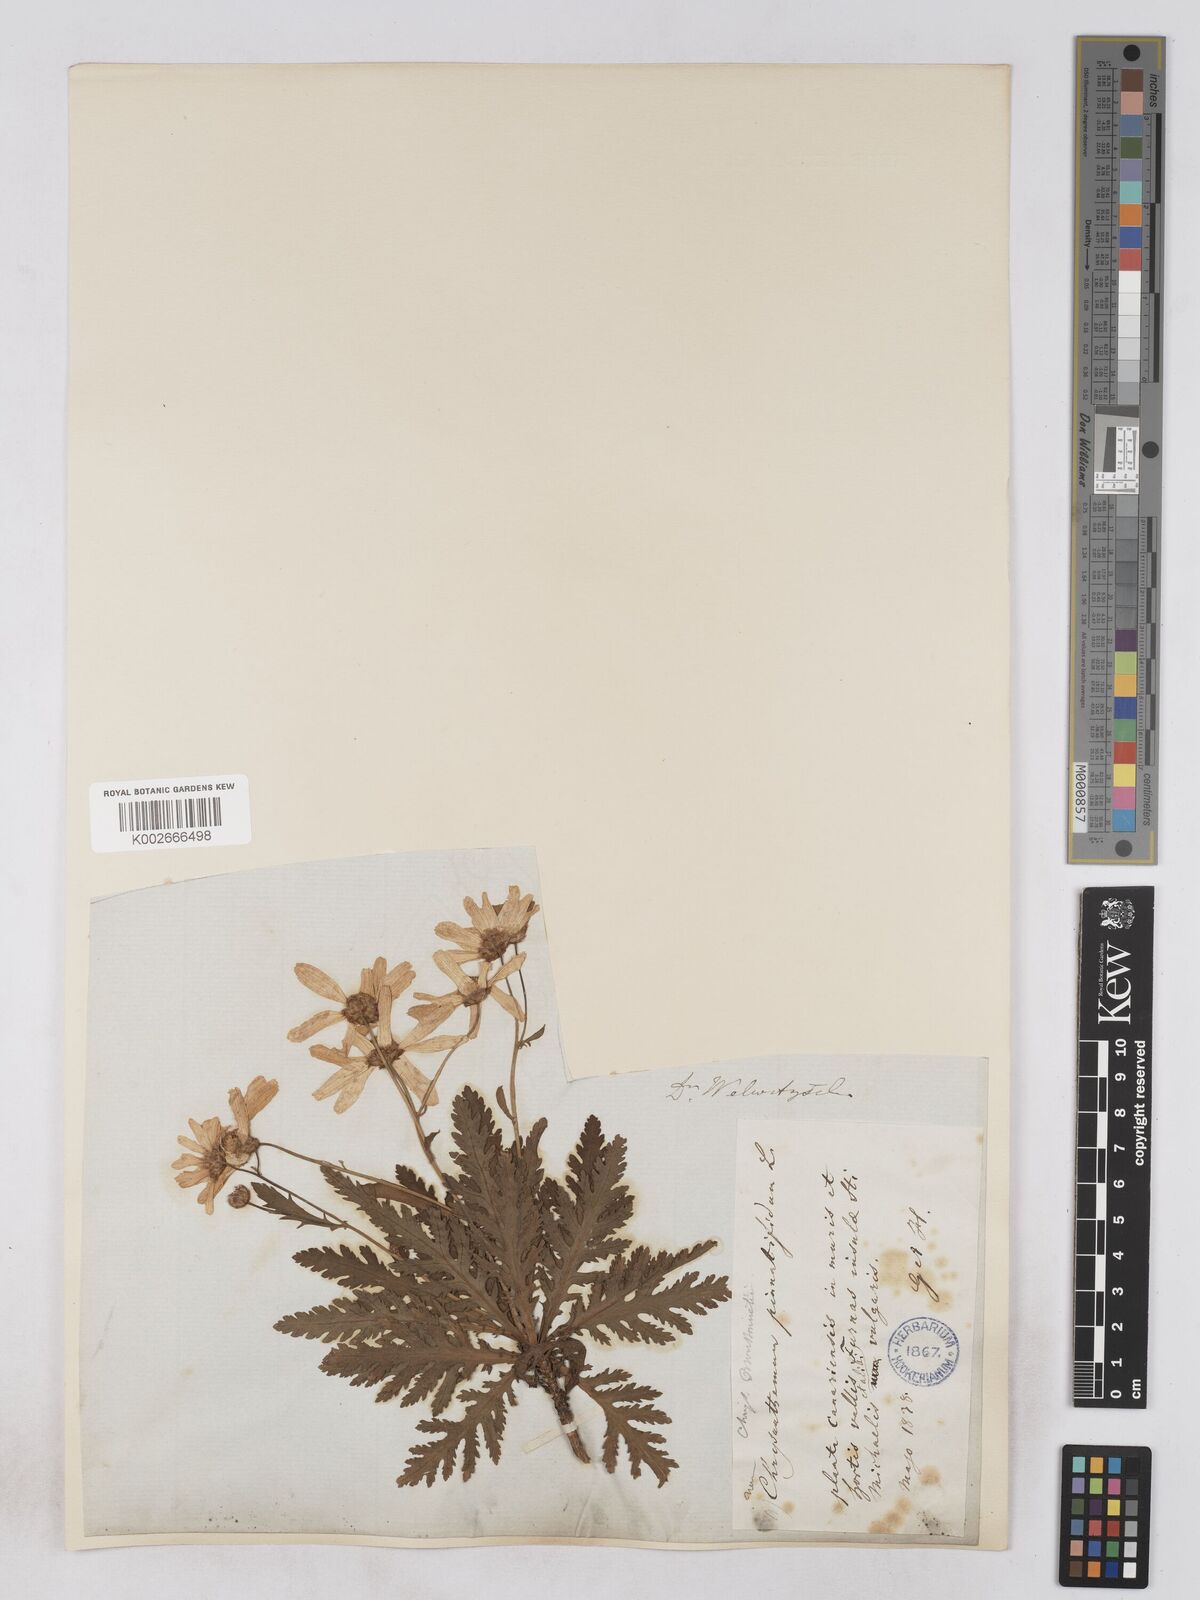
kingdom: Plantae
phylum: Tracheophyta
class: Magnoliopsida
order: Asterales
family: Asteraceae
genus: Argyranthemum
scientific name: Argyranthemum pinnatifidum
